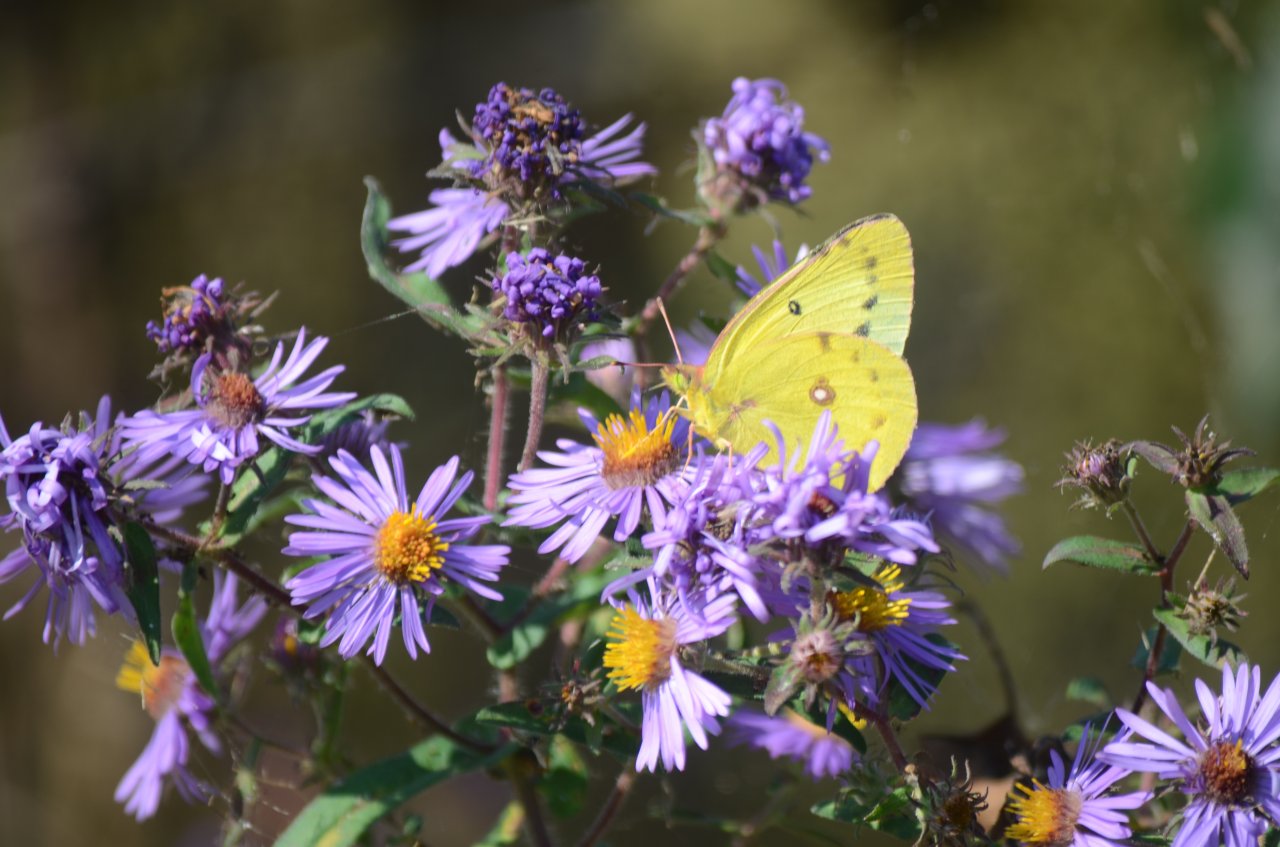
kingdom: Animalia
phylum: Arthropoda
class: Insecta
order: Lepidoptera
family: Pieridae
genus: Colias
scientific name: Colias philodice
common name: Clouded Sulphur
